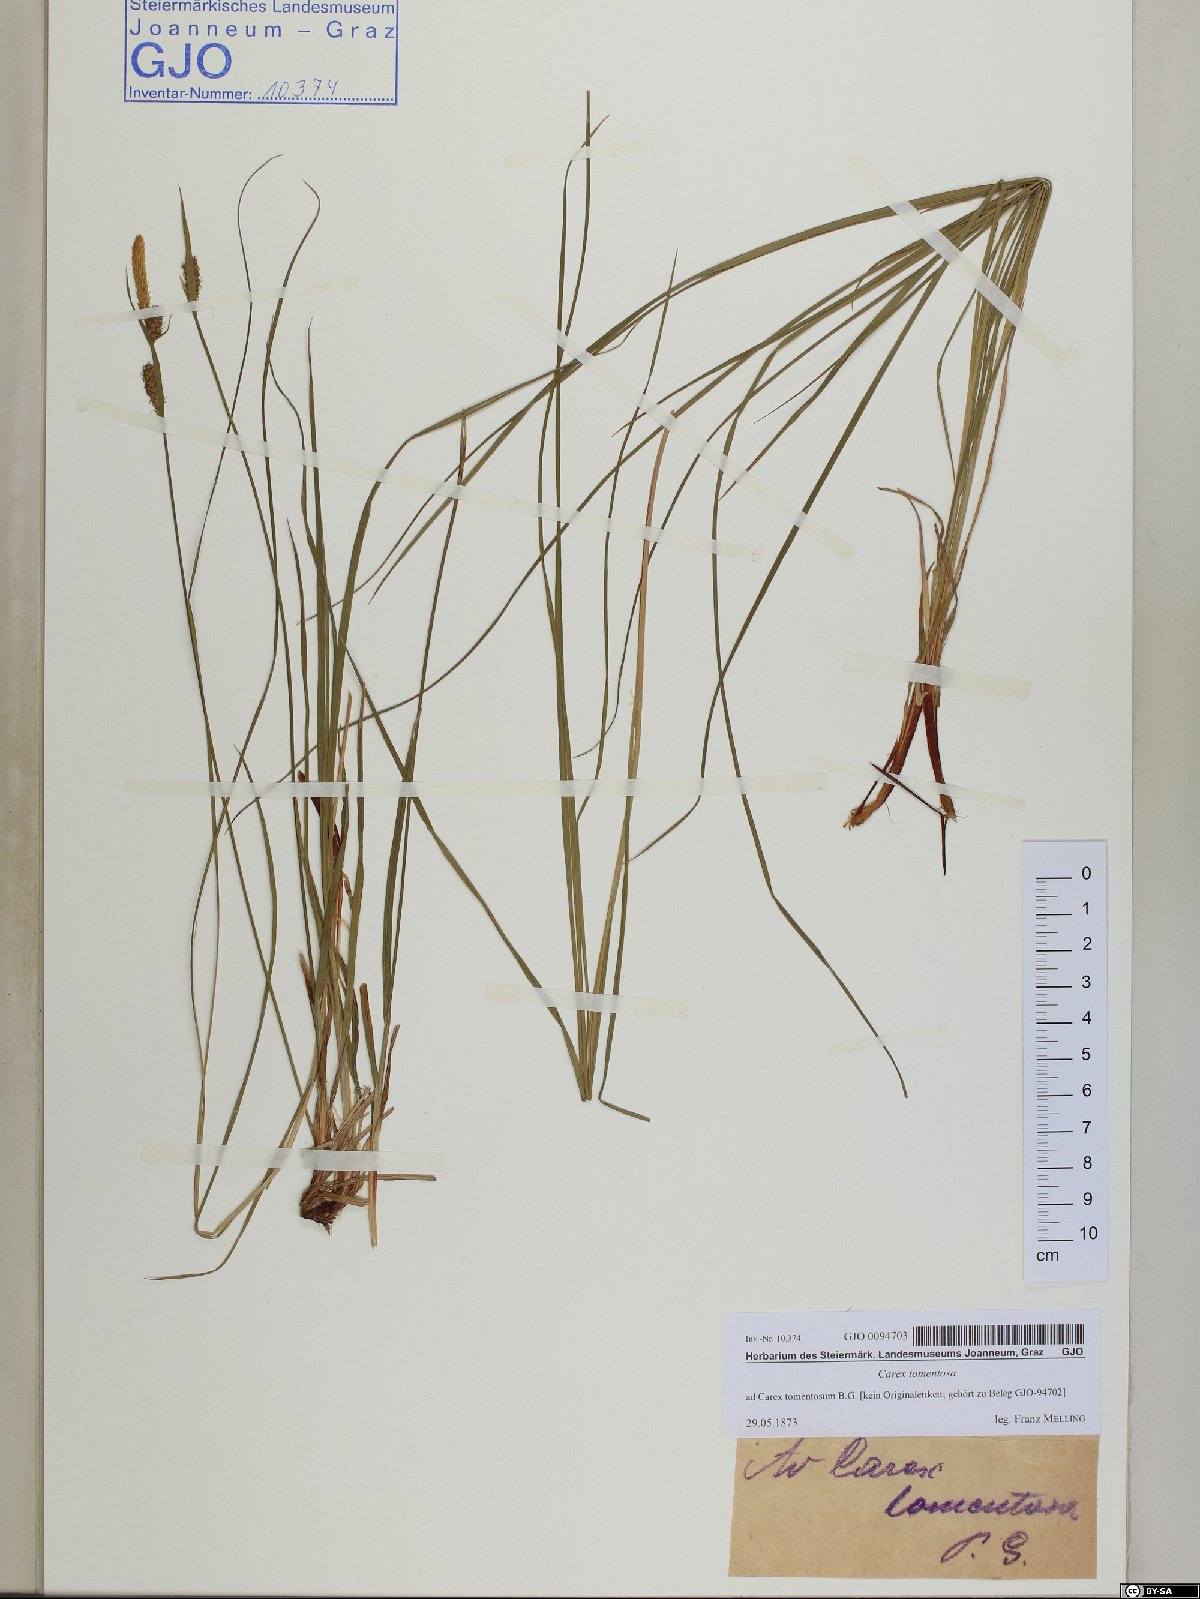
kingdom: Plantae
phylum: Tracheophyta
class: Liliopsida
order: Poales
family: Cyperaceae
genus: Carex
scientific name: Carex tomentosa
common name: Downy-fruited sedge
